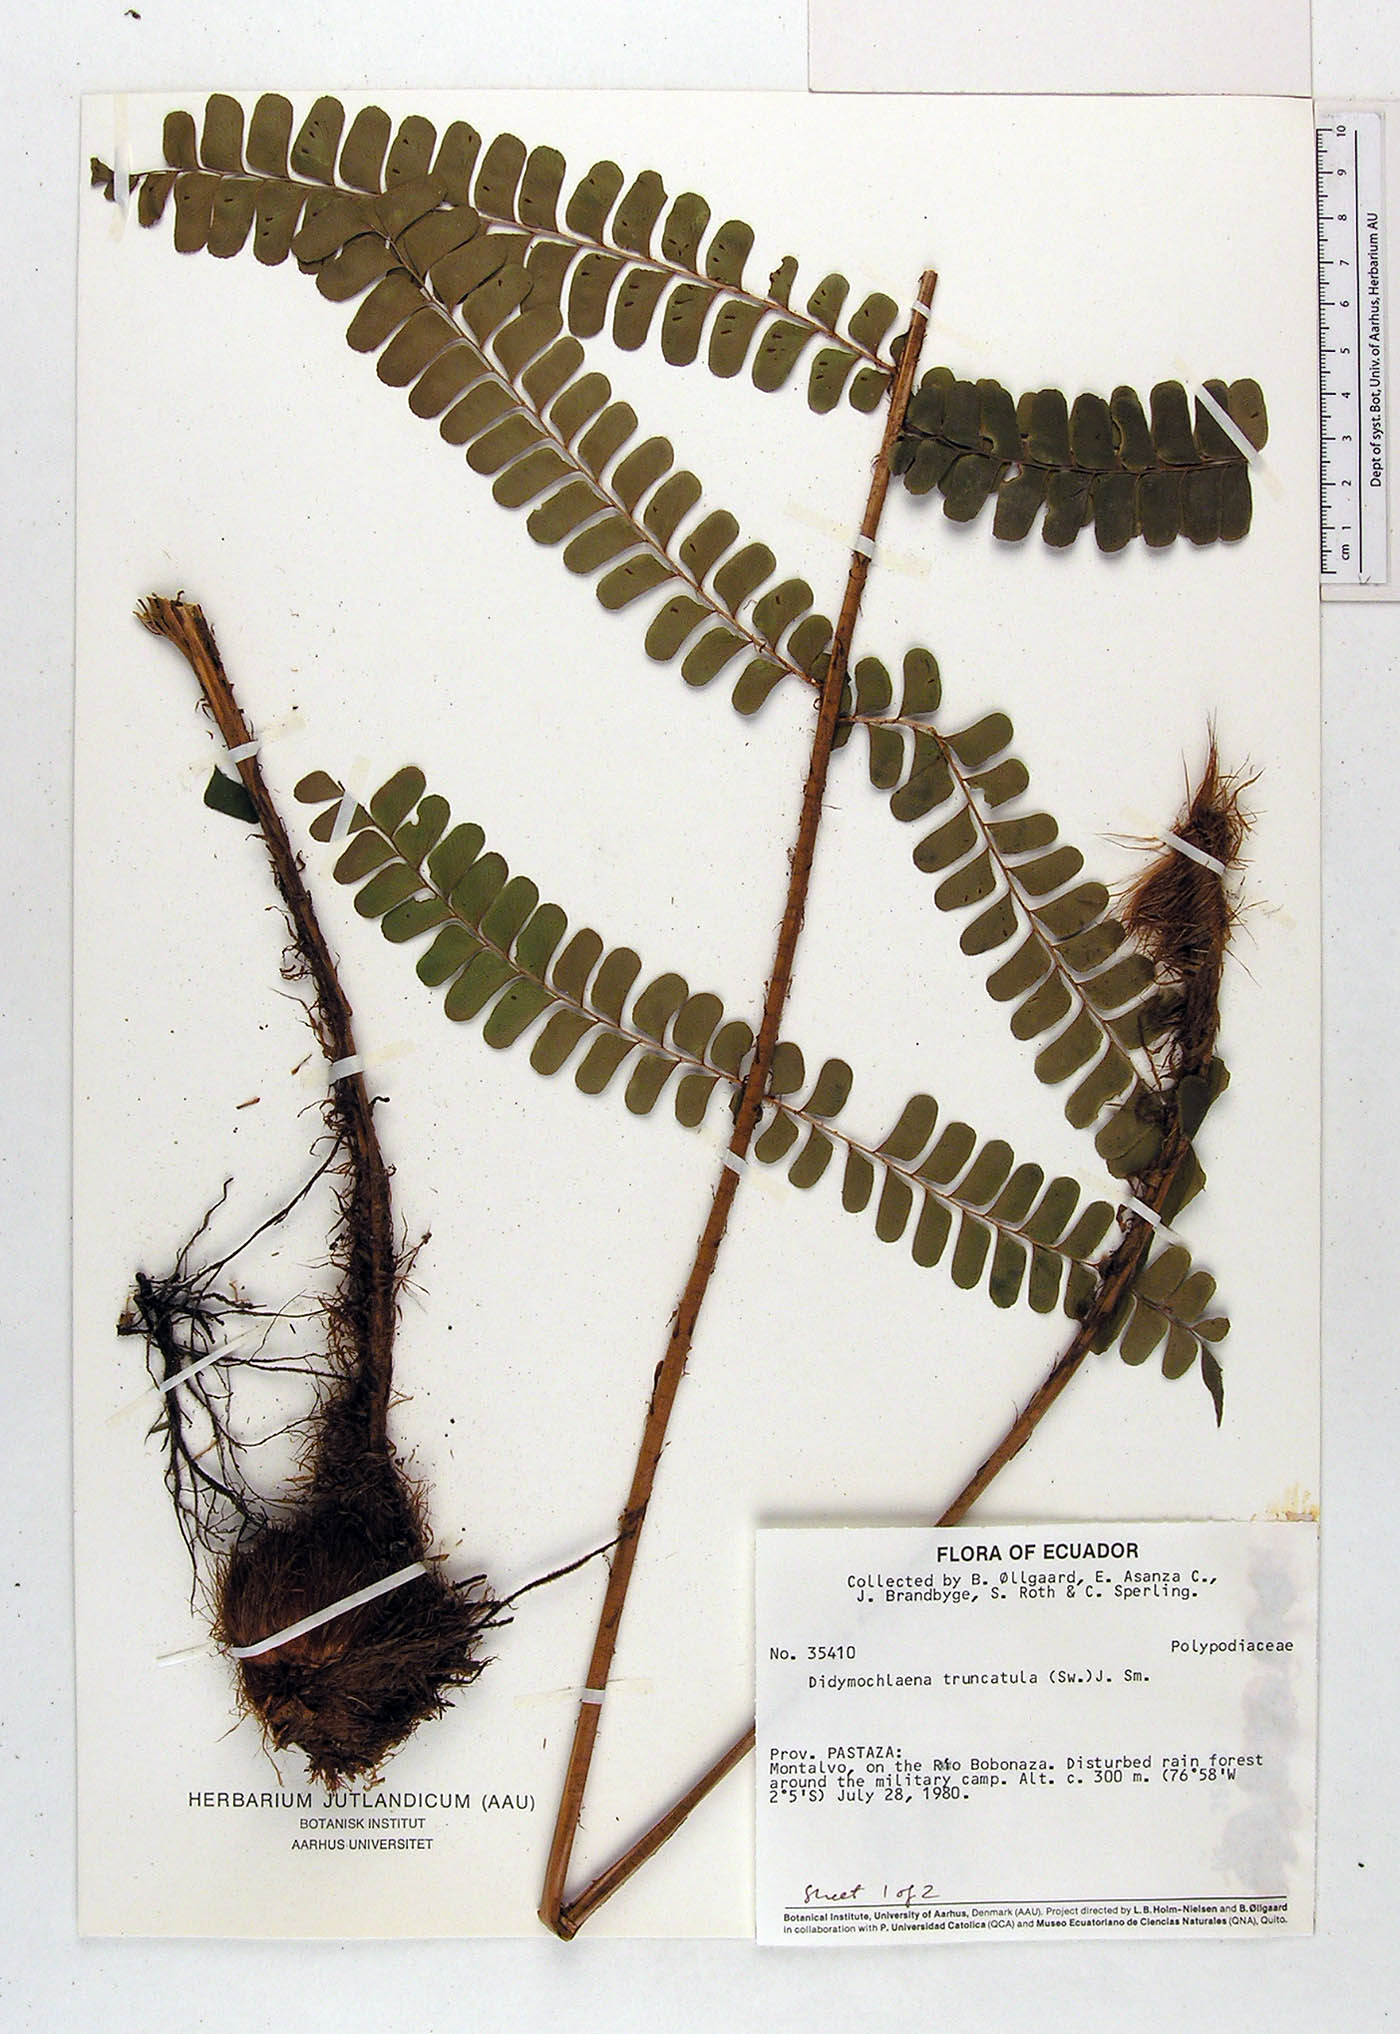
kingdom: Plantae
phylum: Tracheophyta
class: Polypodiopsida
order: Polypodiales
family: Didymochlaenaceae
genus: Didymochlaena
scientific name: Didymochlaena truncatula
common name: Mahogany fern
